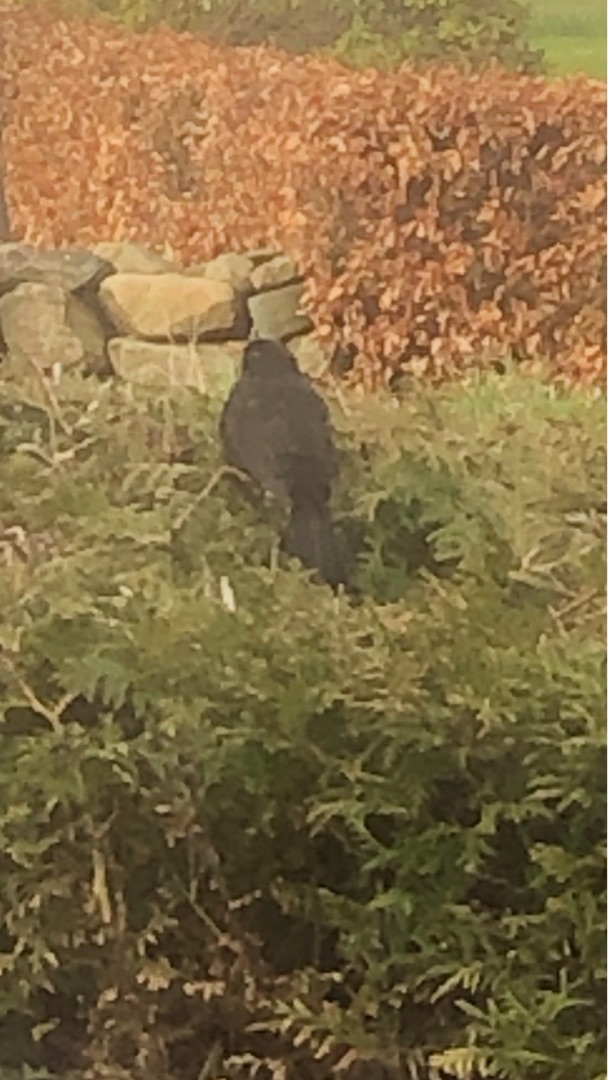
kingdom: Animalia
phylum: Chordata
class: Aves
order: Passeriformes
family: Turdidae
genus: Turdus
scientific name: Turdus merula
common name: Solsort
